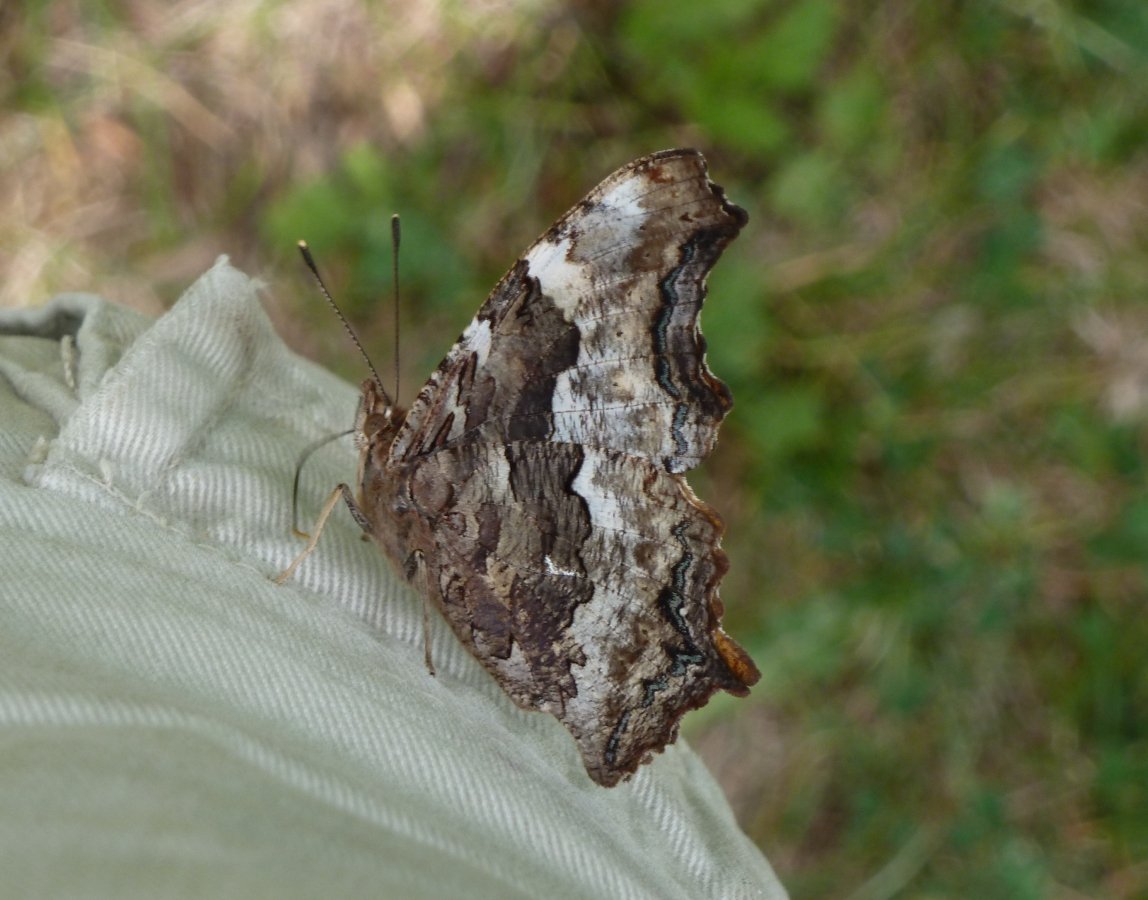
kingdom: Animalia
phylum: Arthropoda
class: Insecta
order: Lepidoptera
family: Nymphalidae
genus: Polygonia
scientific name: Polygonia vaualbum
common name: Compton Tortoiseshell
